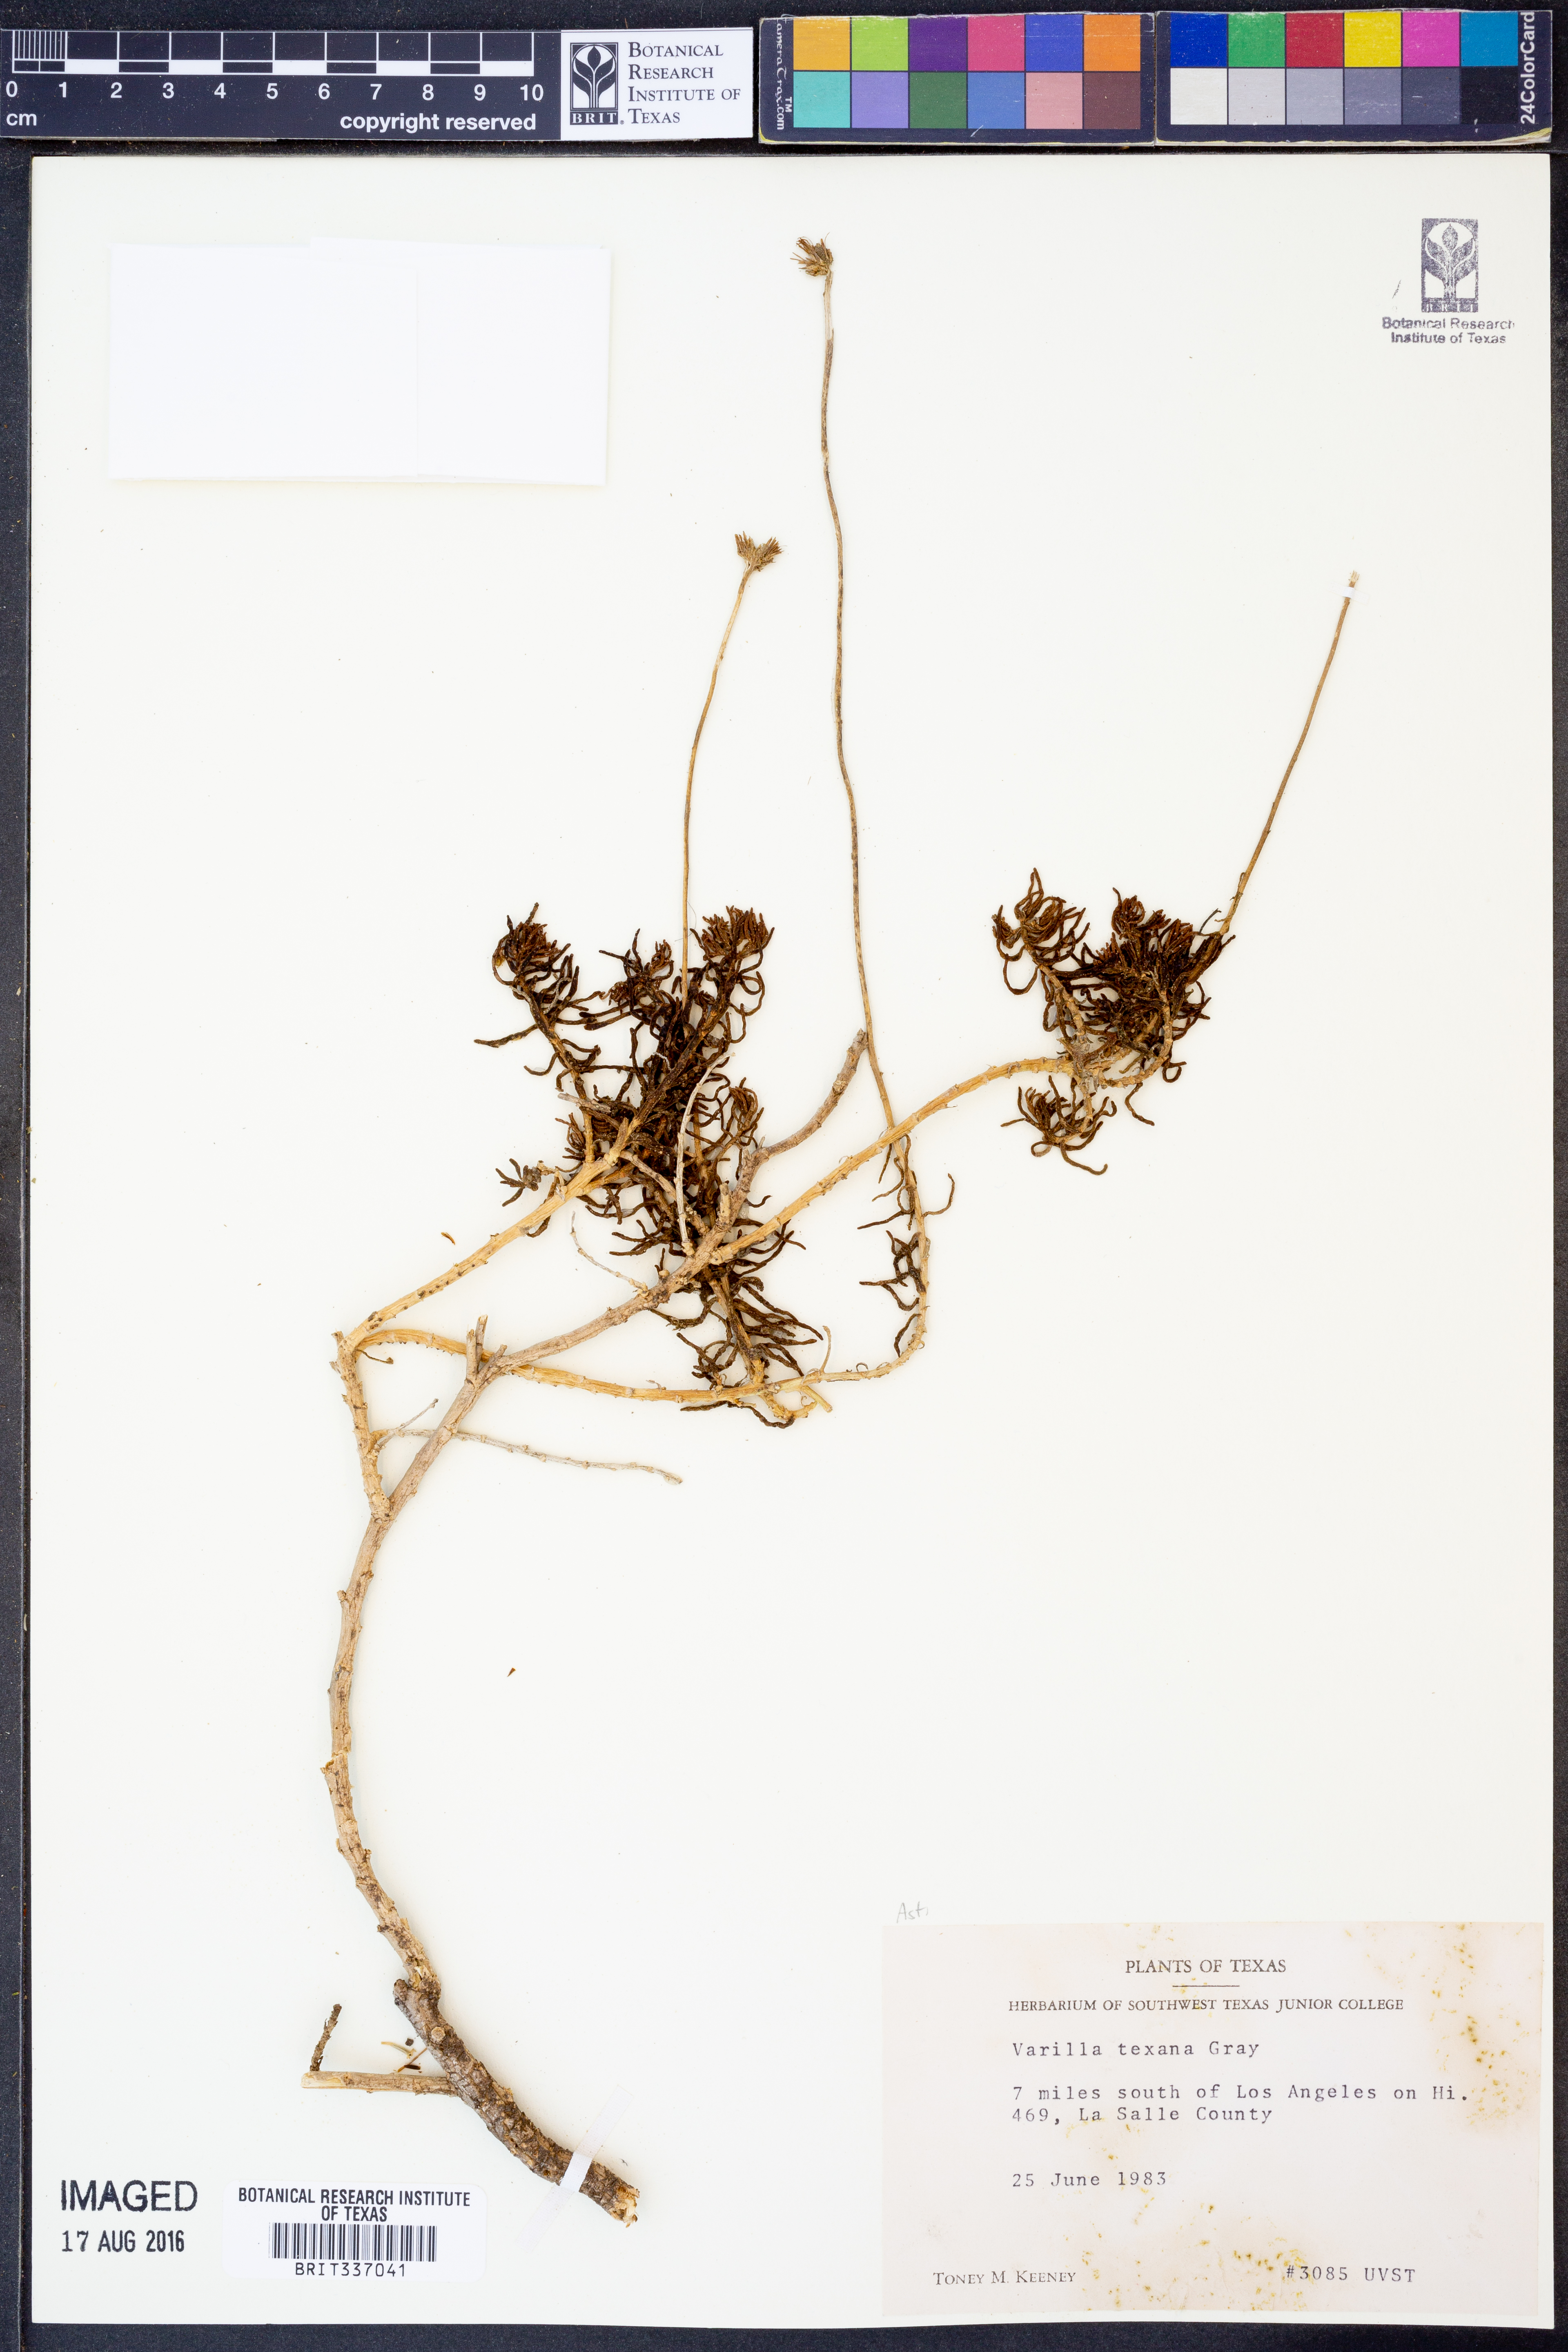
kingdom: Plantae
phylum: Tracheophyta
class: Magnoliopsida
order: Asterales
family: Asteraceae
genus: Varilla
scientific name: Varilla texana
